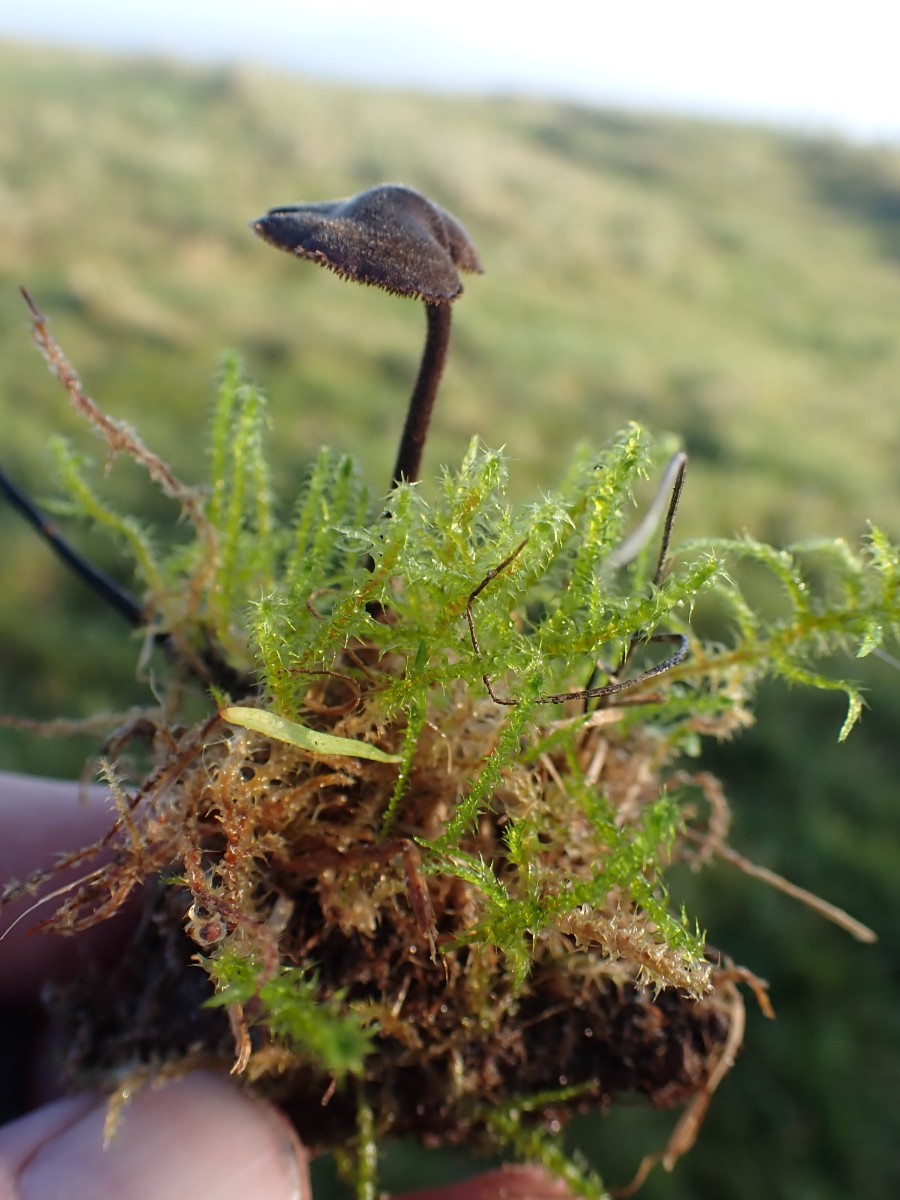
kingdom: Fungi
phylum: Basidiomycota
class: Agaricomycetes
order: Russulales
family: Auriscalpiaceae
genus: Auriscalpium
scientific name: Auriscalpium vulgare
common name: koglepigsvamp
